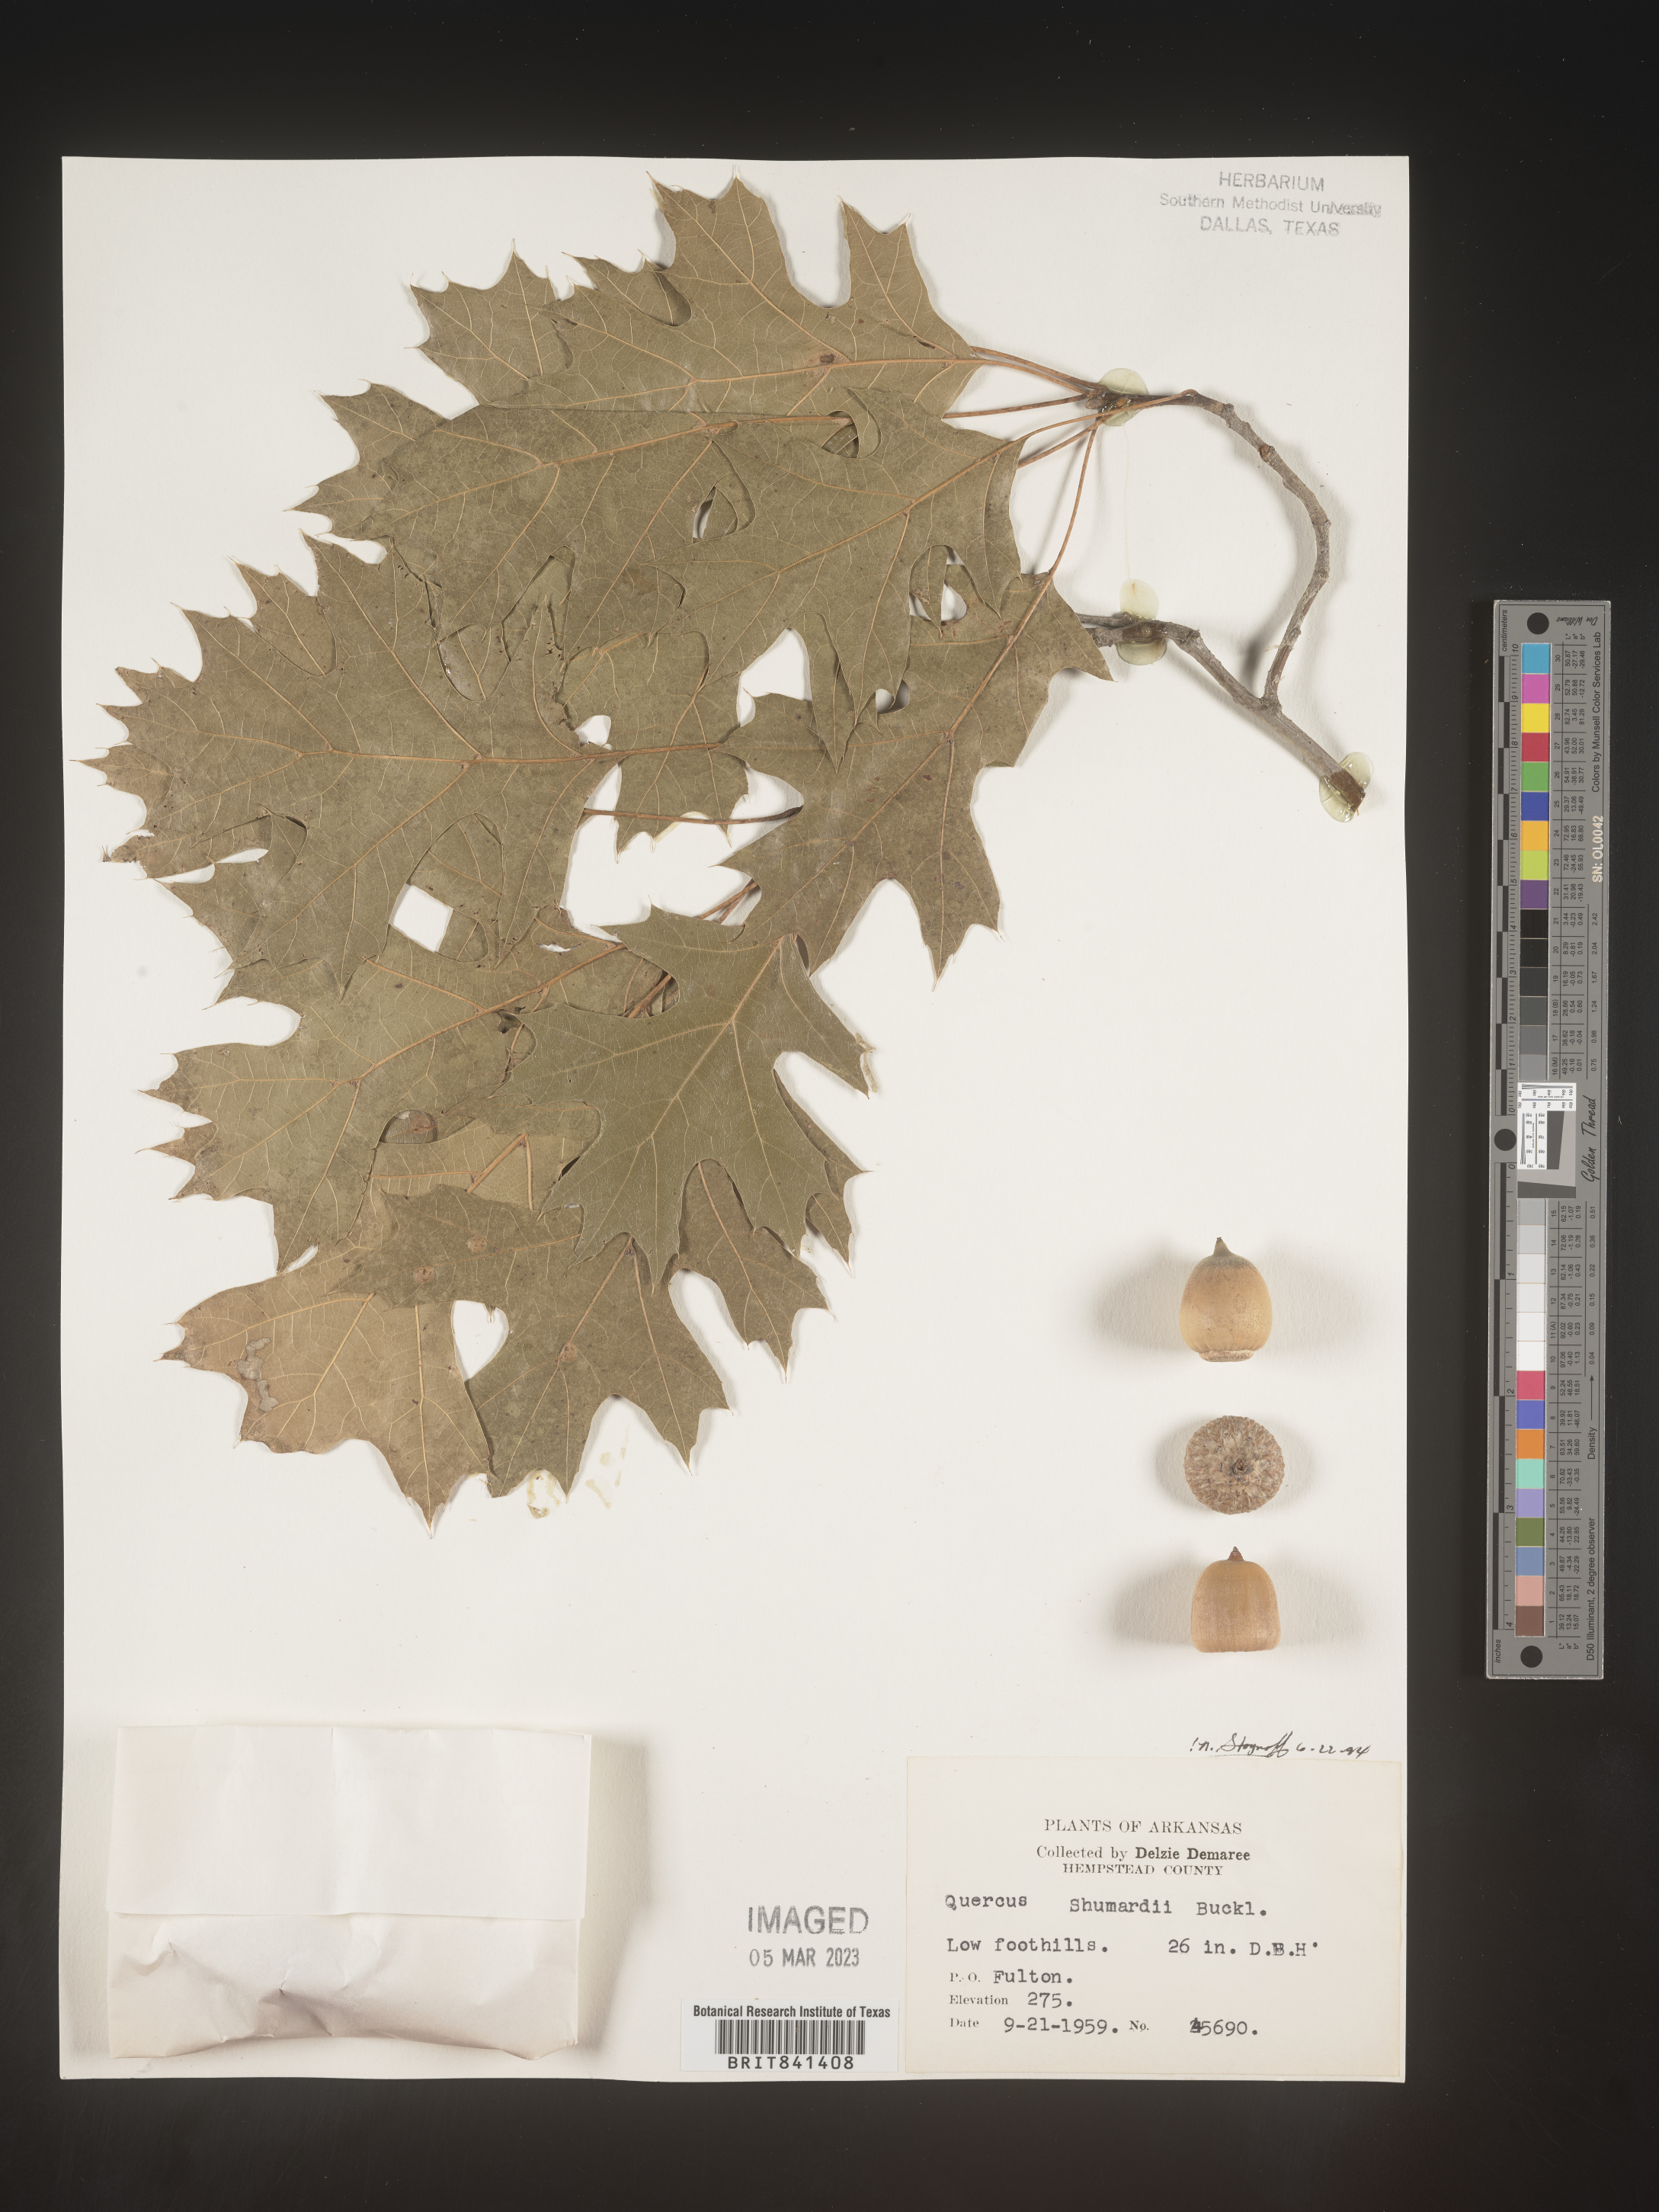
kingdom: Plantae
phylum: Tracheophyta
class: Magnoliopsida
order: Fagales
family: Fagaceae
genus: Quercus
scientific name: Quercus shumardii
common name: Shumard oak
